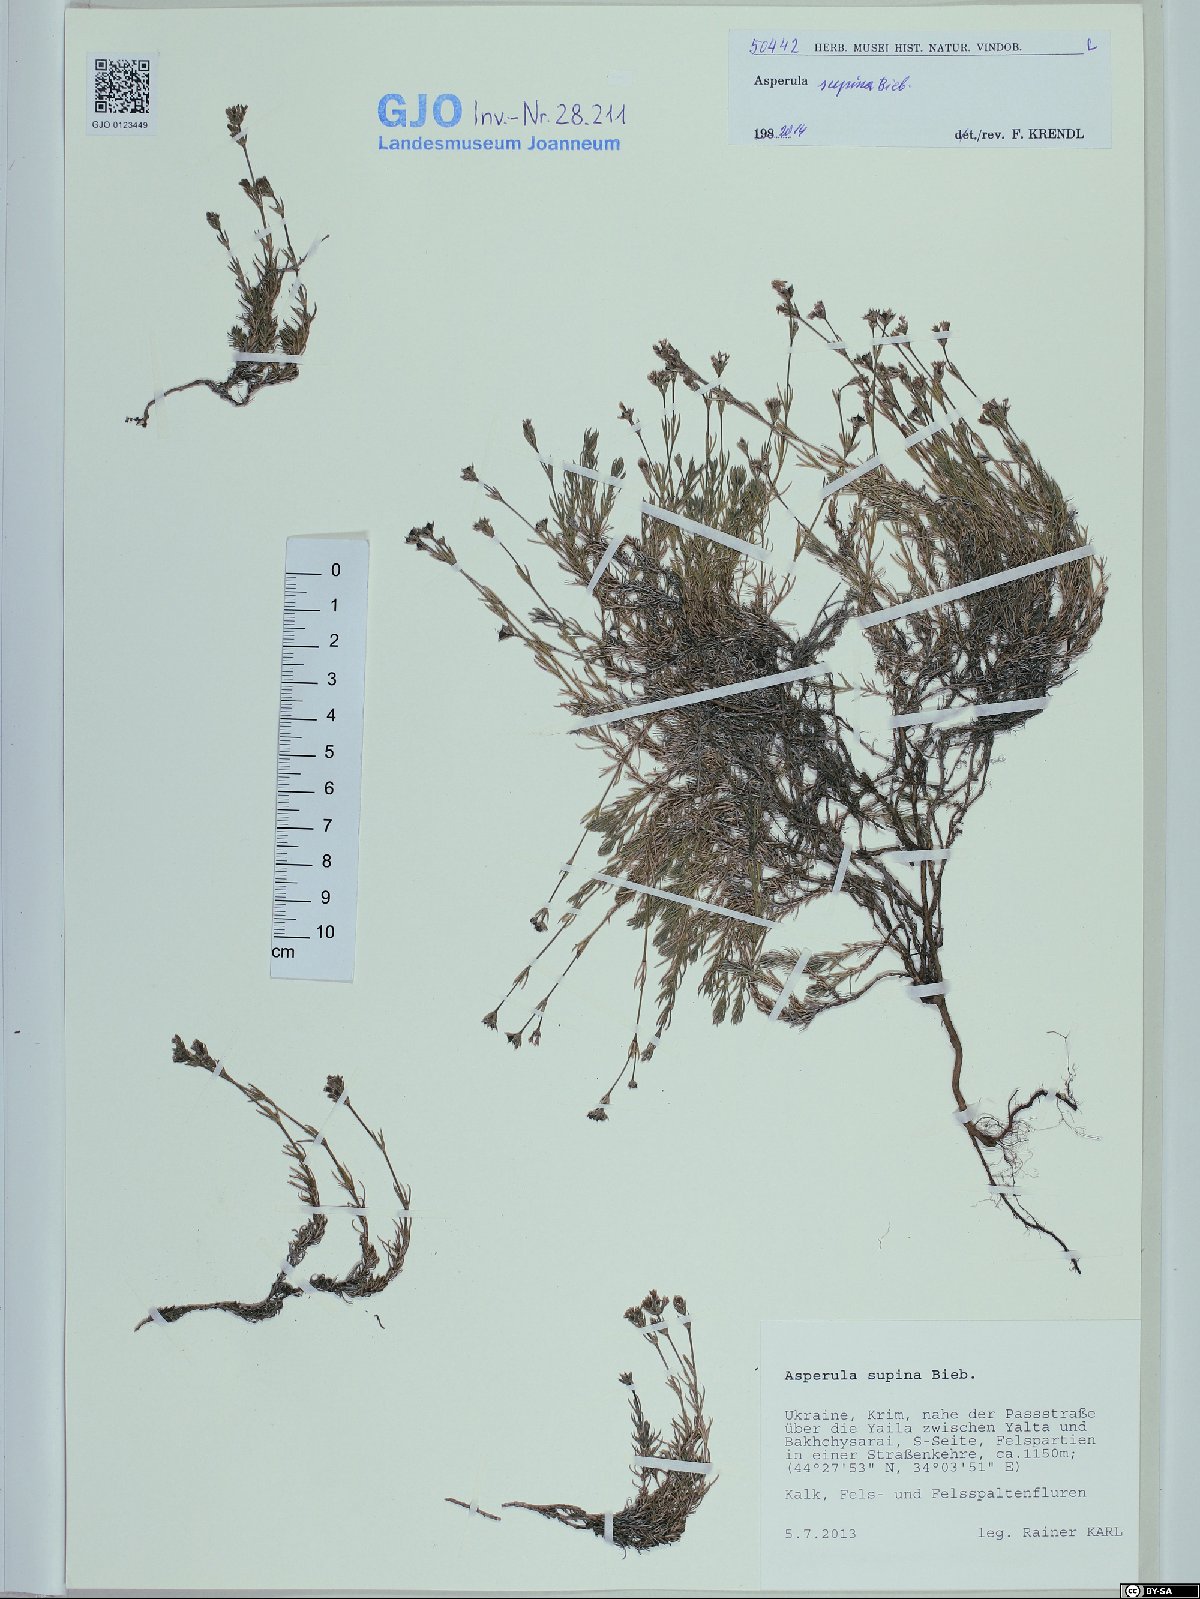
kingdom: Plantae
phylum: Tracheophyta
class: Magnoliopsida
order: Gentianales
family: Rubiaceae
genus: Cynanchica
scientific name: Cynanchica supina
